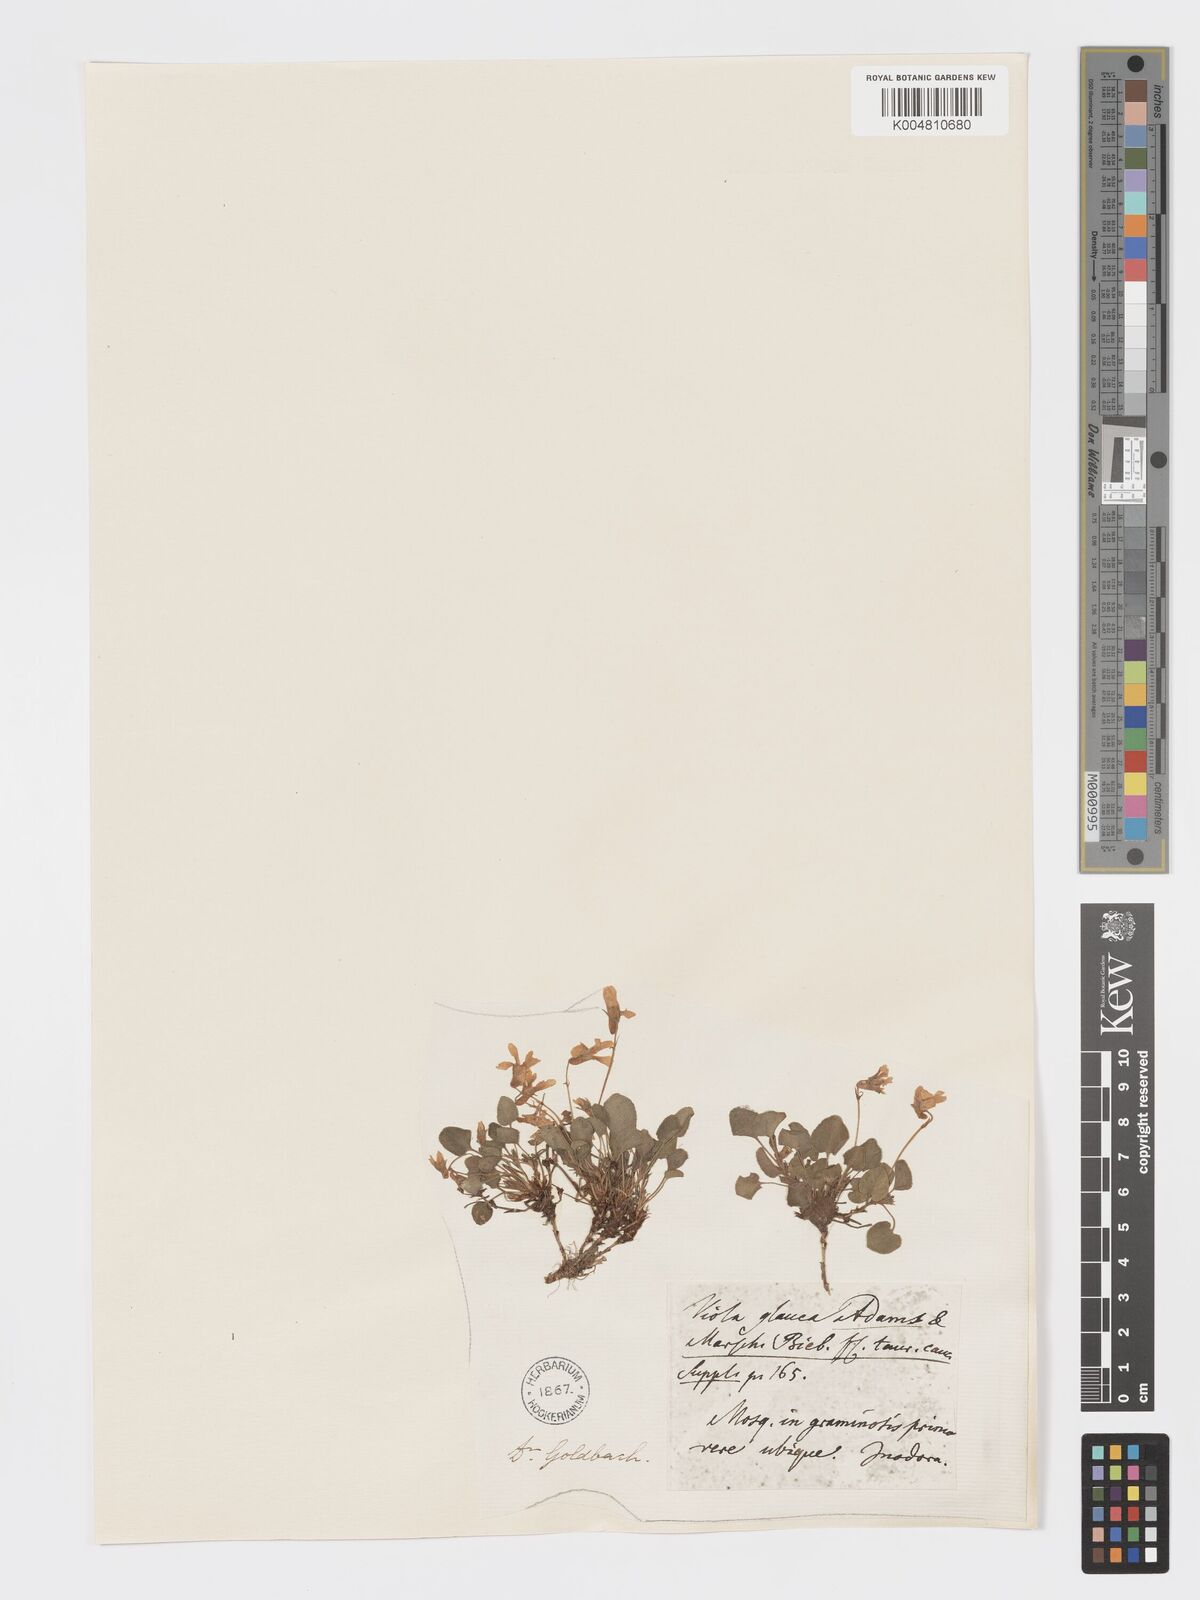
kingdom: Plantae
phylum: Tracheophyta
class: Magnoliopsida
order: Malpighiales
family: Violaceae
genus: Viola
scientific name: Viola rupestris
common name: Teesdale violet
